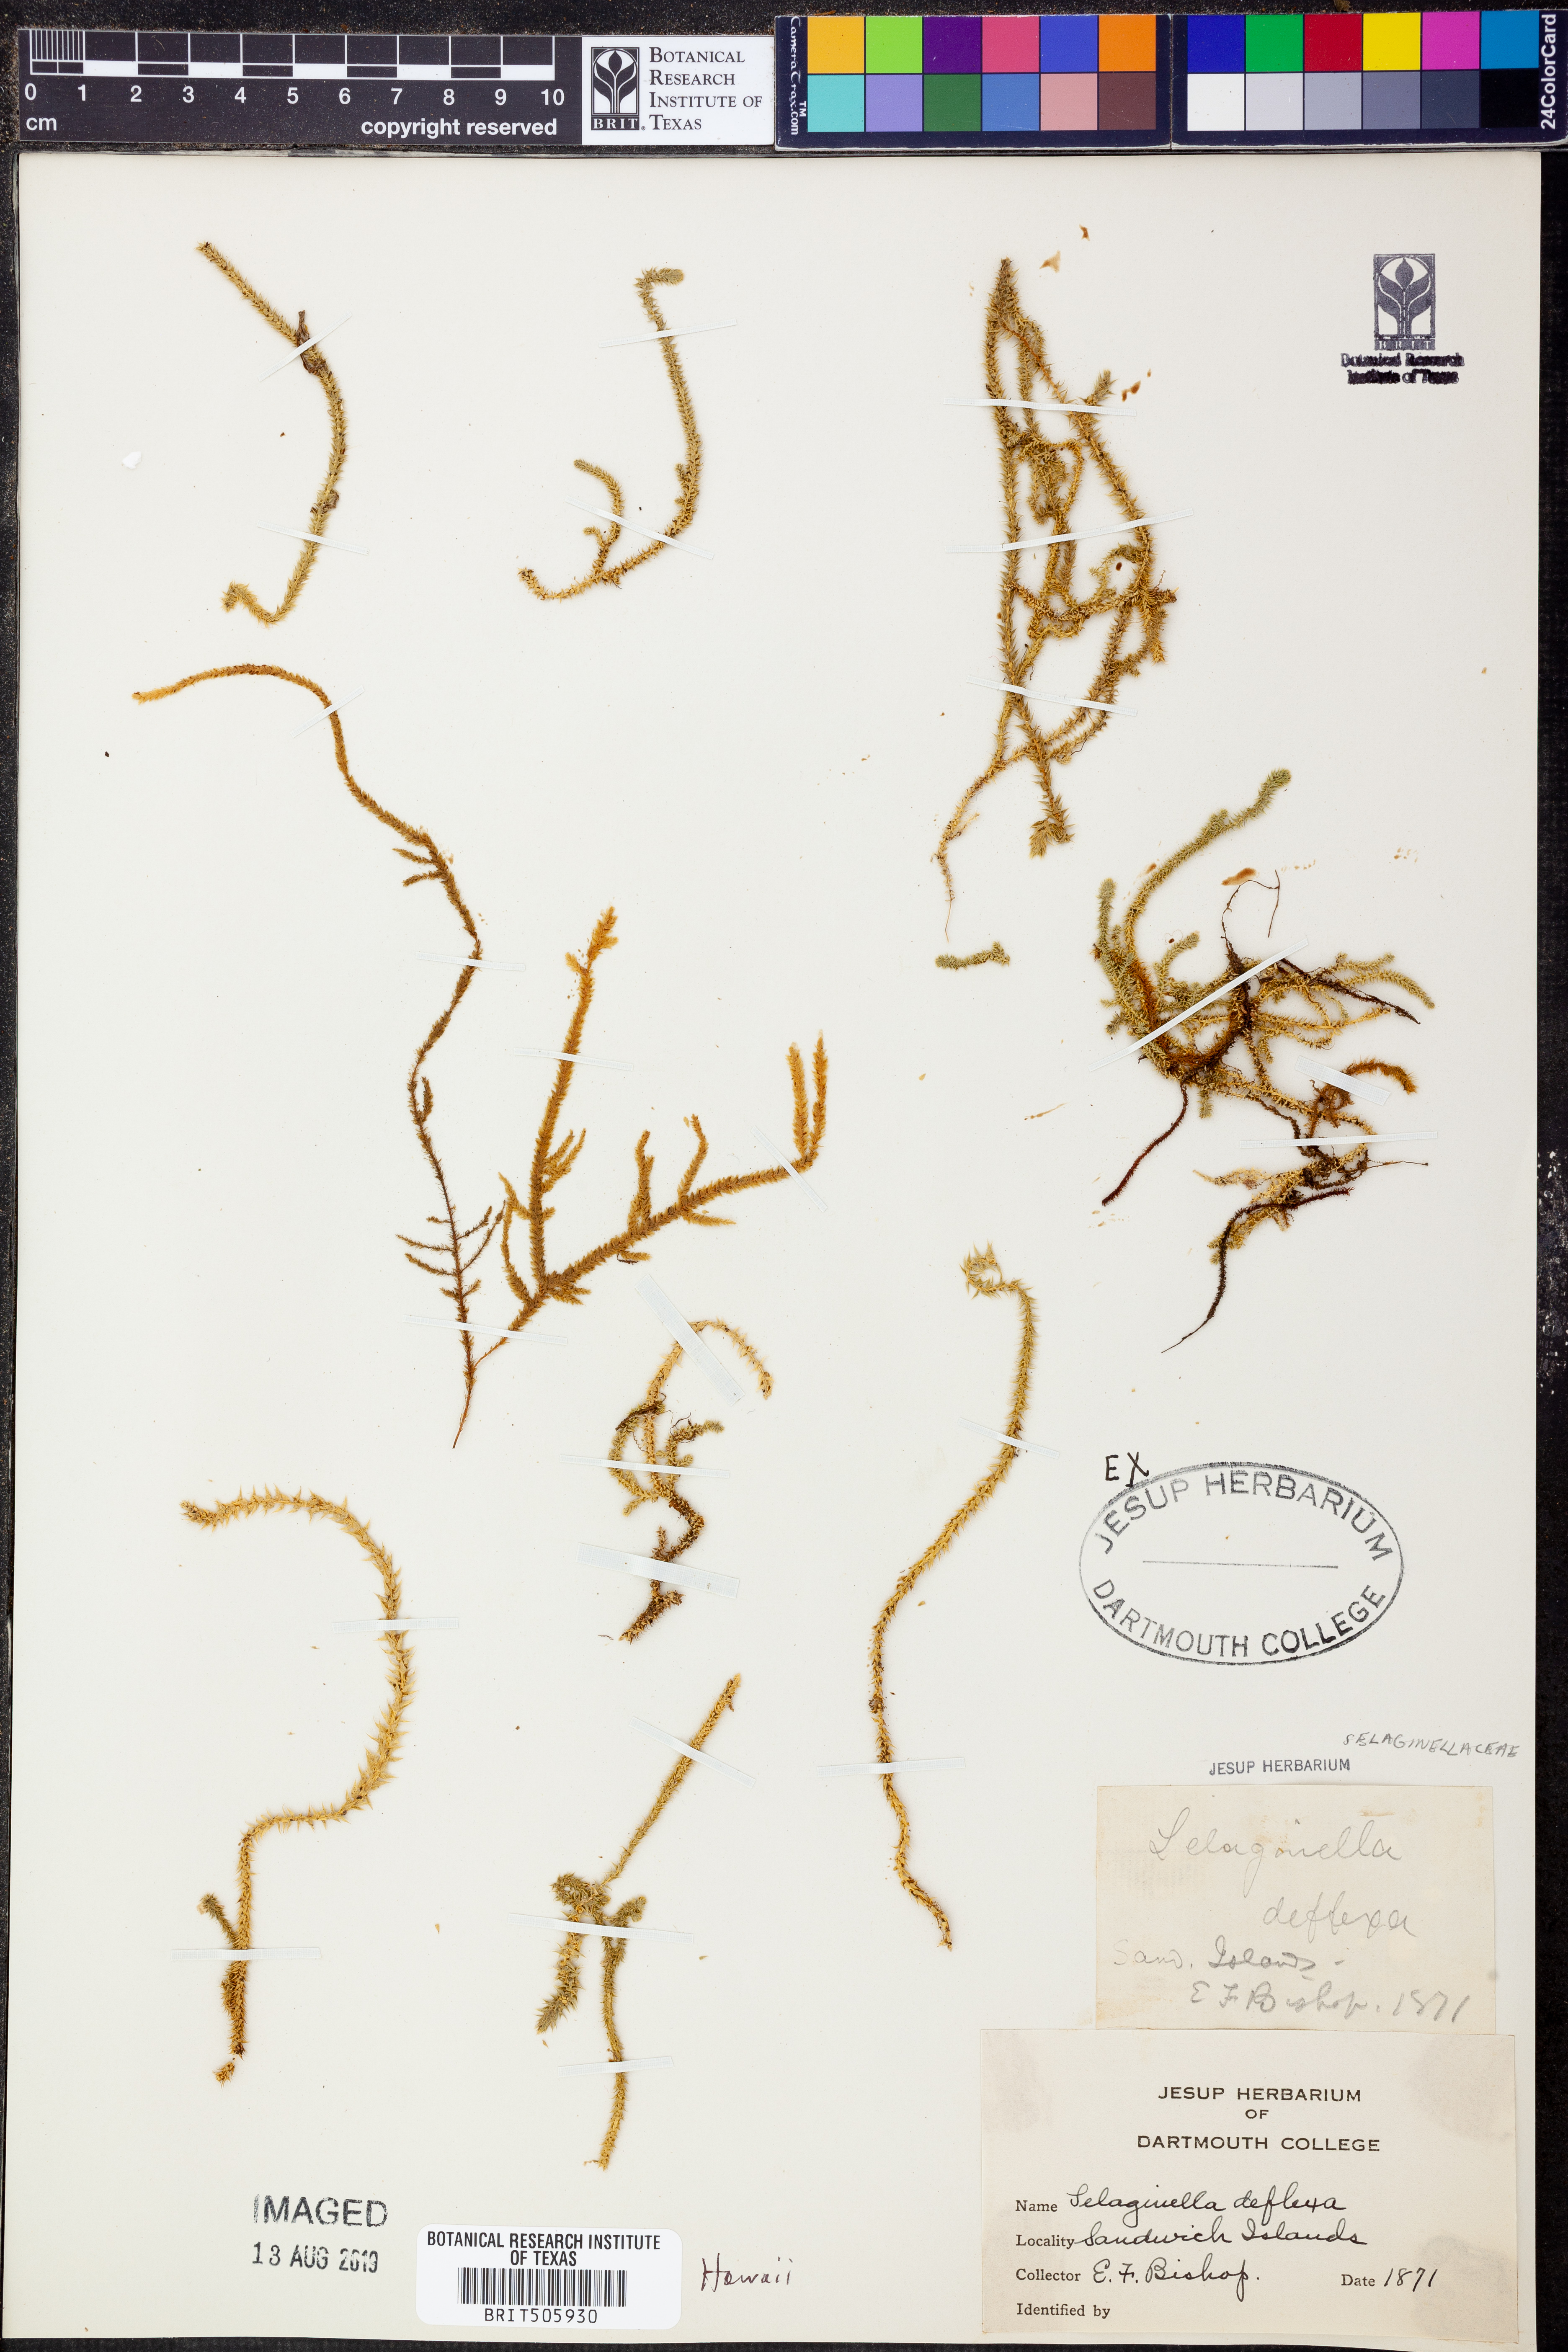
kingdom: Plantae
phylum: Tracheophyta
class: Lycopodiopsida
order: Selaginellales
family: Selaginellaceae
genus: Selaginella
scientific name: Selaginella deflexa
